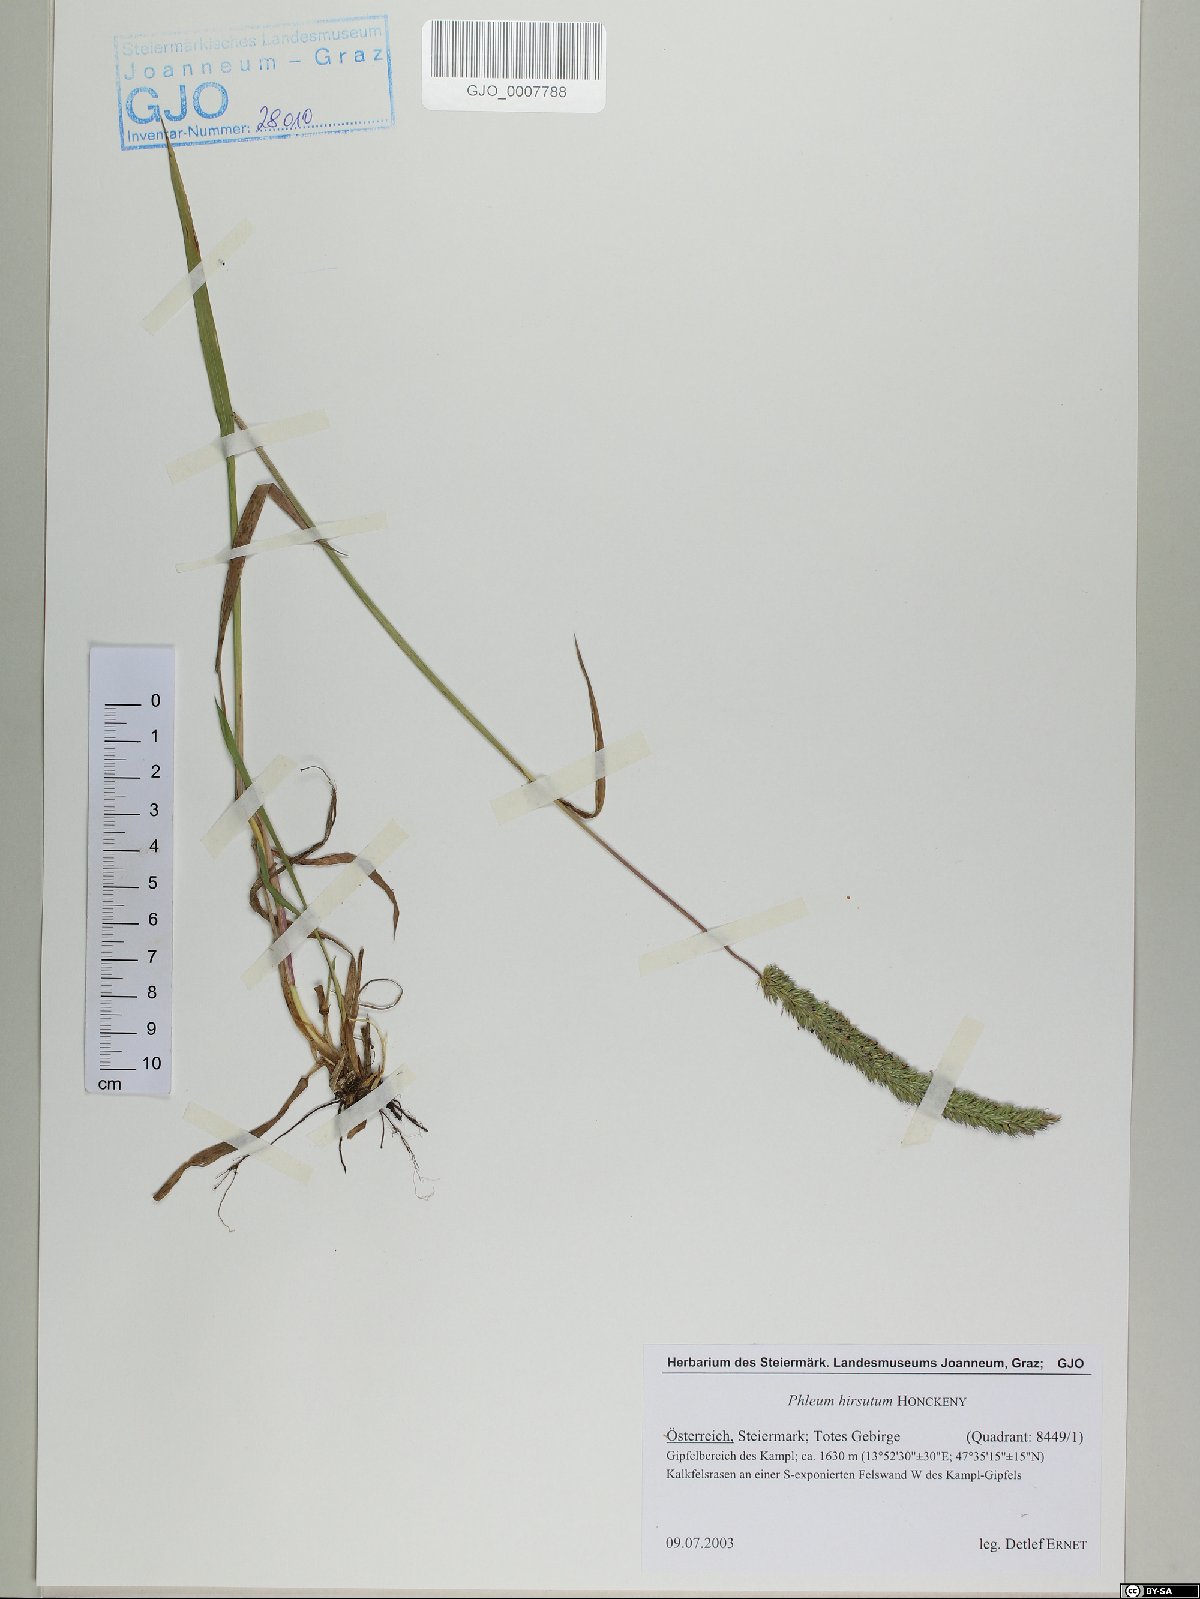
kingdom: Plantae
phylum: Tracheophyta
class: Liliopsida
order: Poales
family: Poaceae
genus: Phleum
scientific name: Phleum hirsutum
